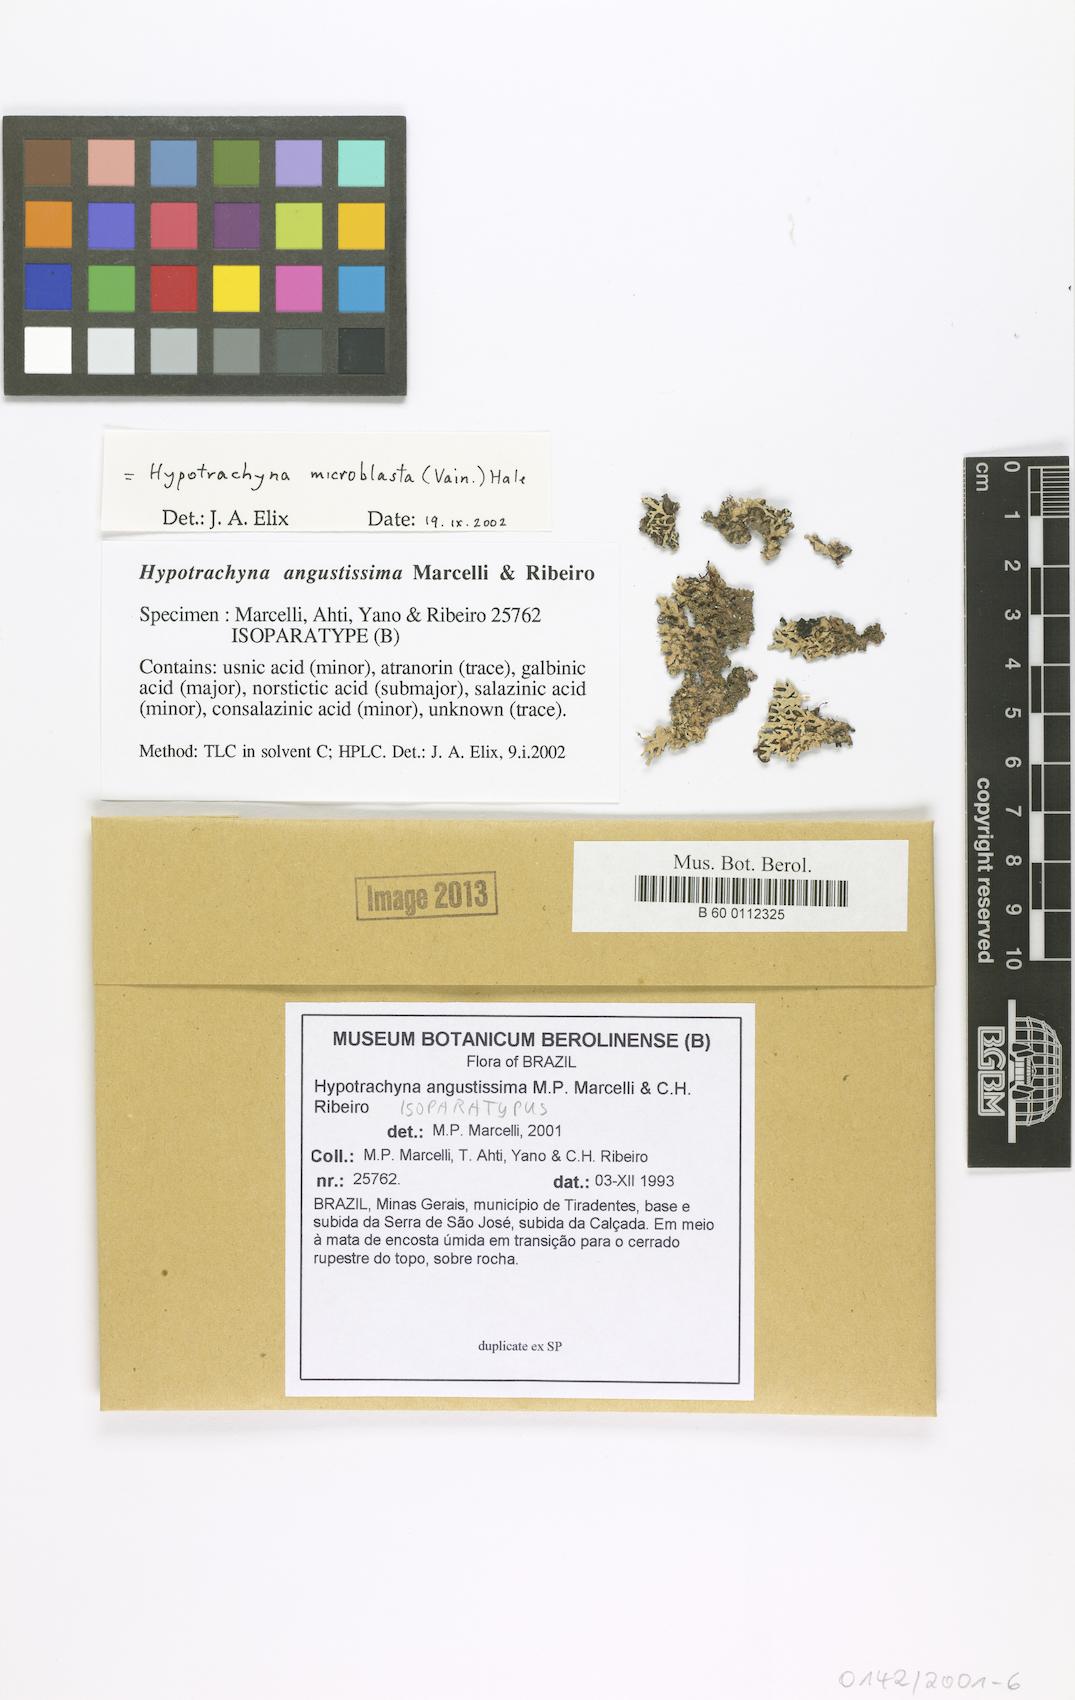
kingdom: Fungi
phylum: Ascomycota
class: Lecanoromycetes
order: Lecanorales
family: Parmeliaceae
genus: Hypotrachyna
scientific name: Hypotrachyna angustissima
